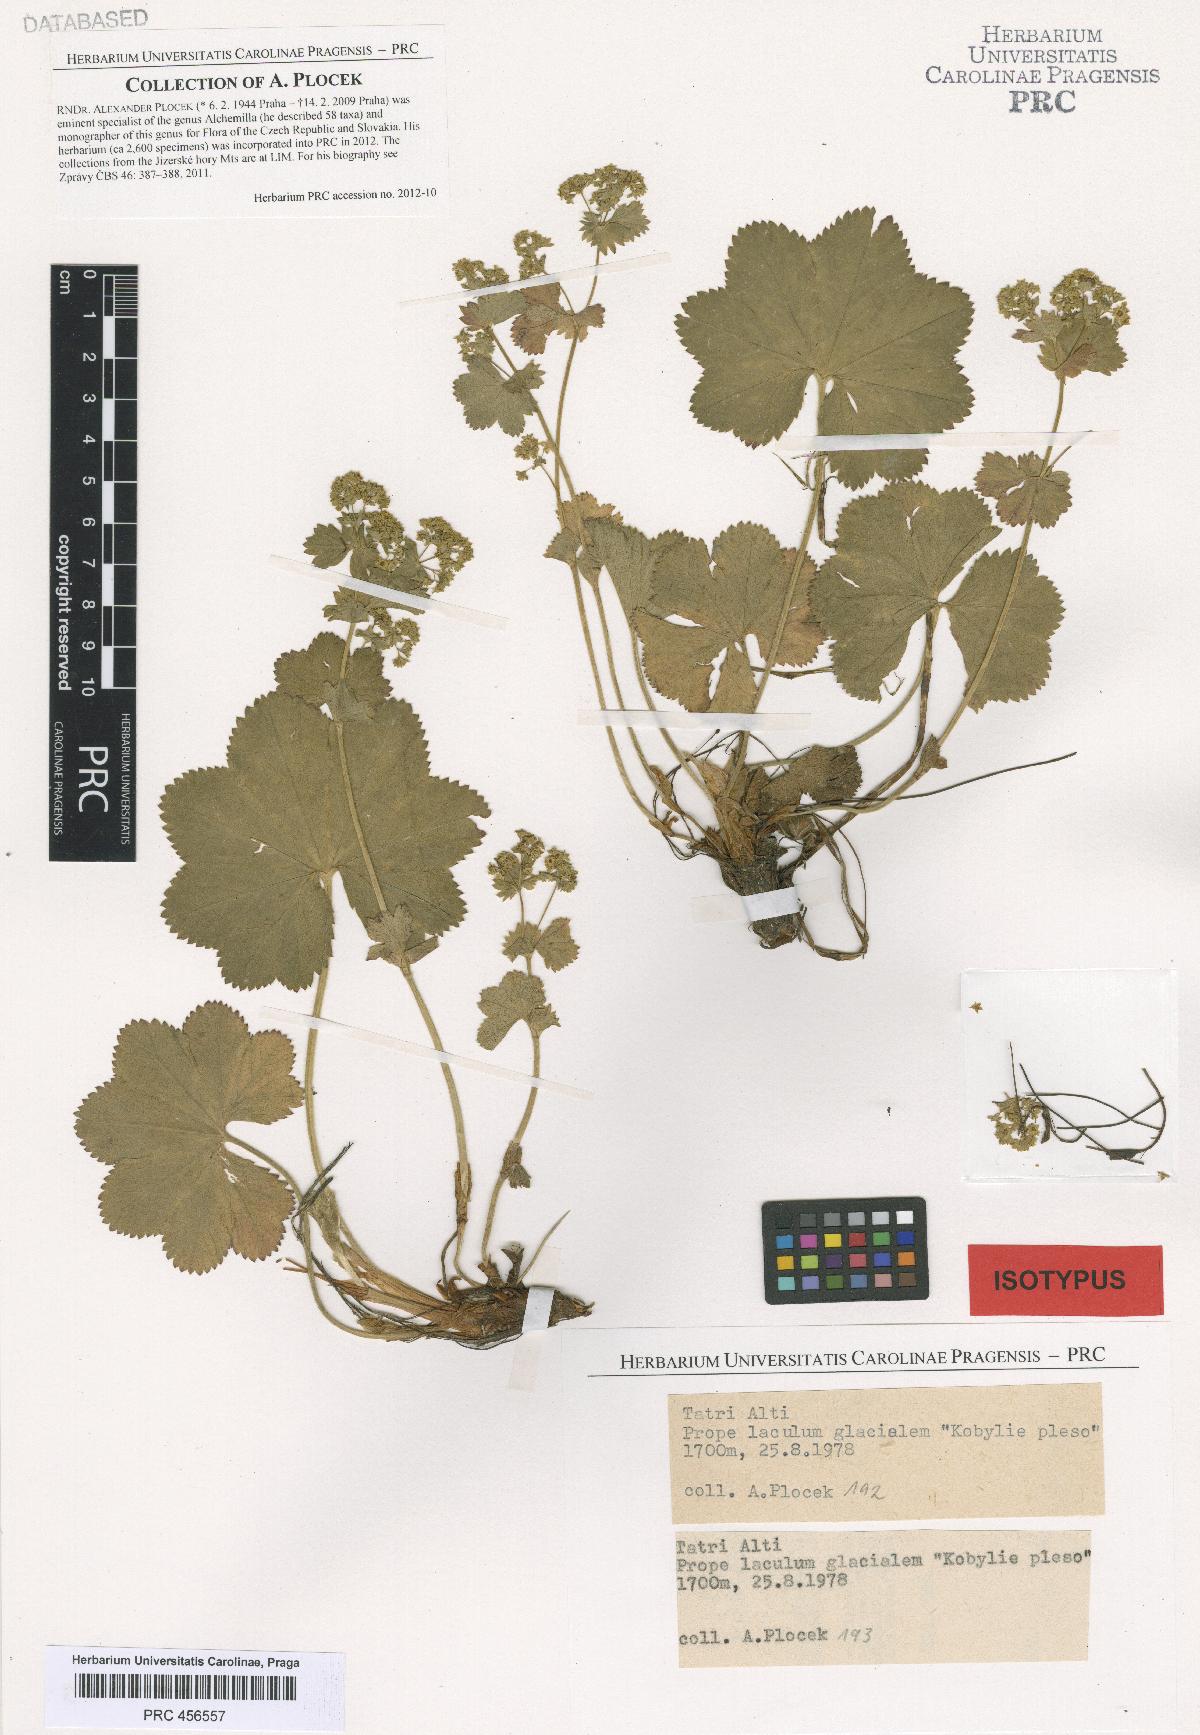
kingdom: Plantae
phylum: Tracheophyta
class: Magnoliopsida
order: Rosales
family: Rosaceae
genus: Alchemilla
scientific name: Alchemilla tacikii
